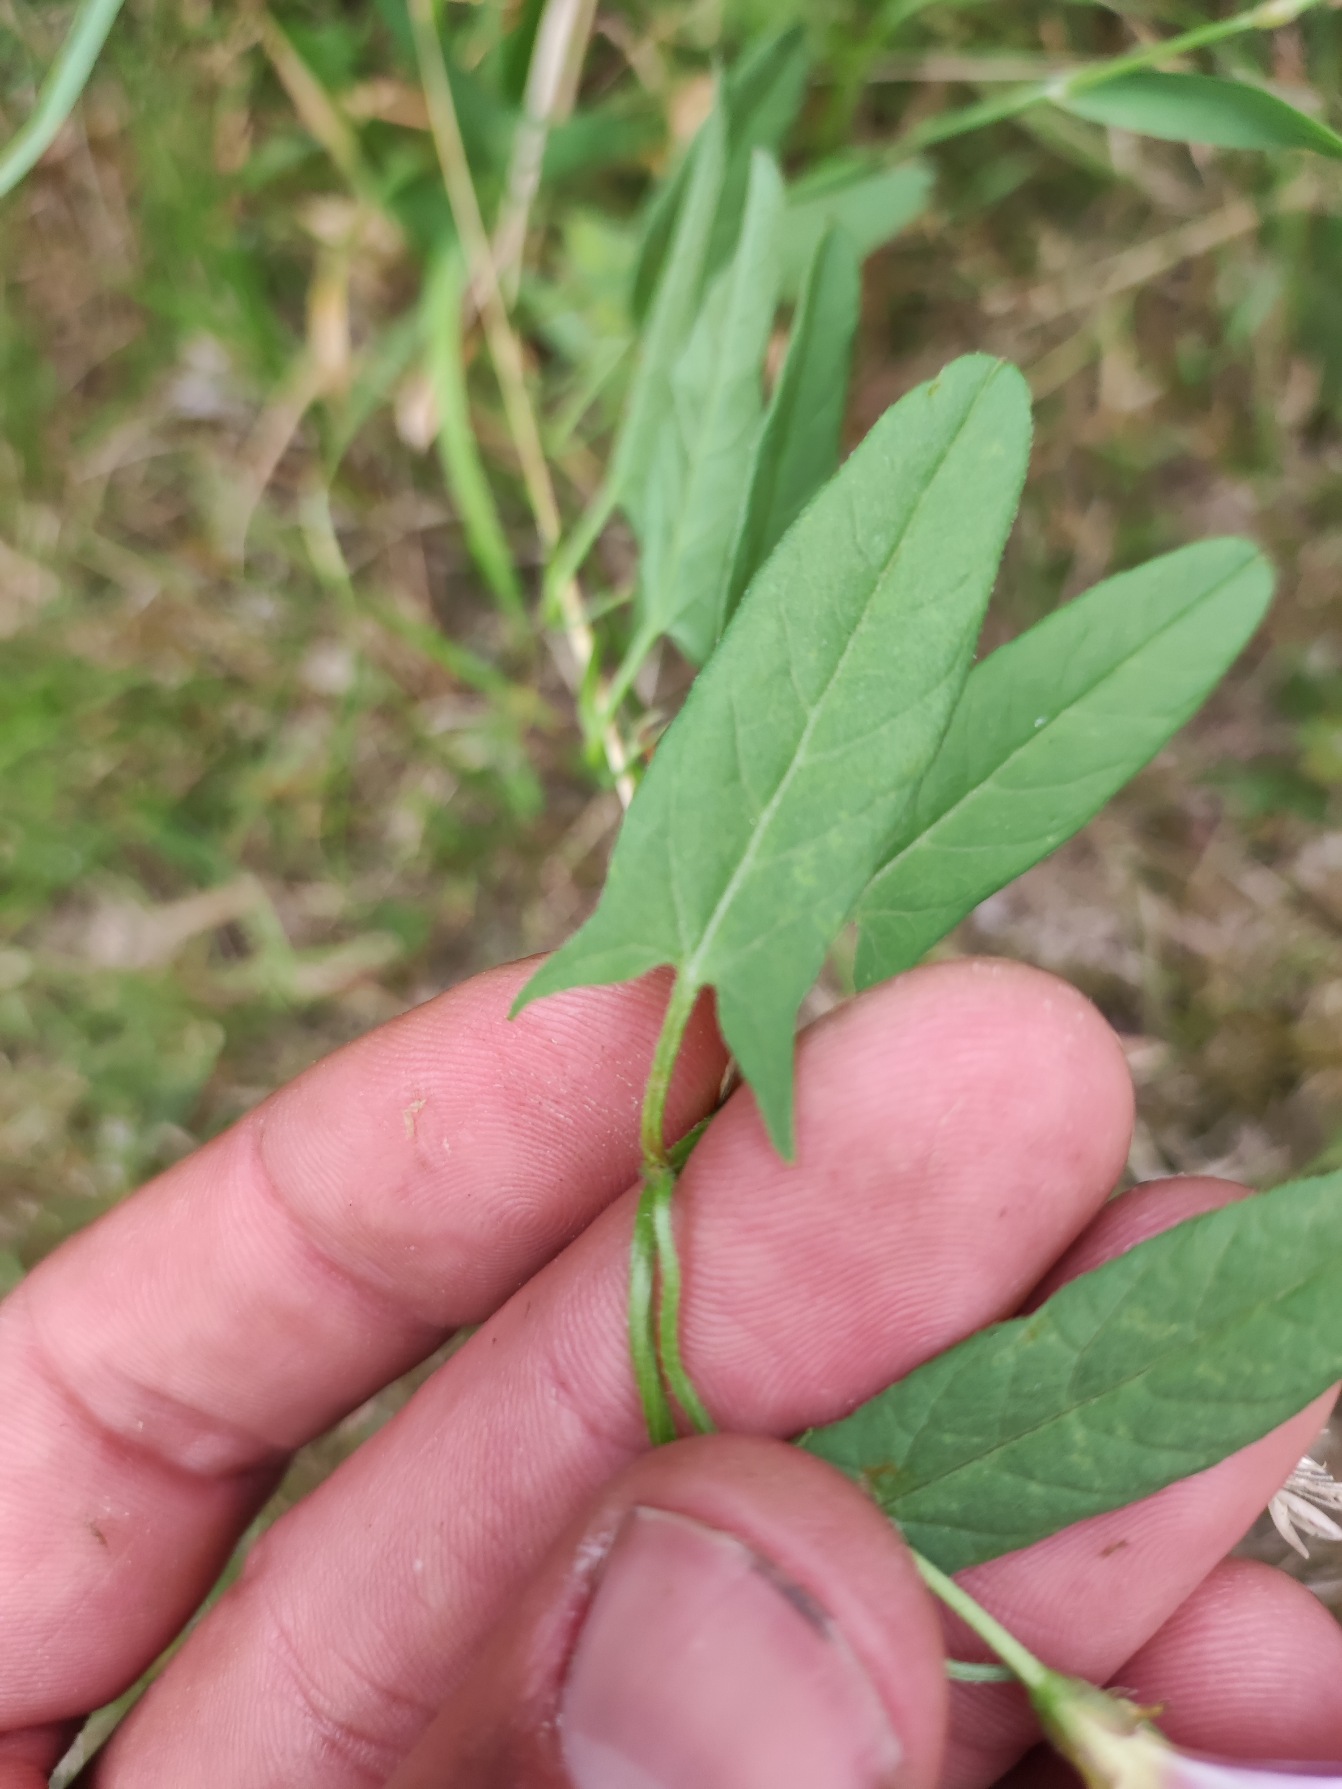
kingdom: Plantae
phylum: Tracheophyta
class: Magnoliopsida
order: Solanales
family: Convolvulaceae
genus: Convolvulus
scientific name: Convolvulus arvensis
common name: Ager-snerle
